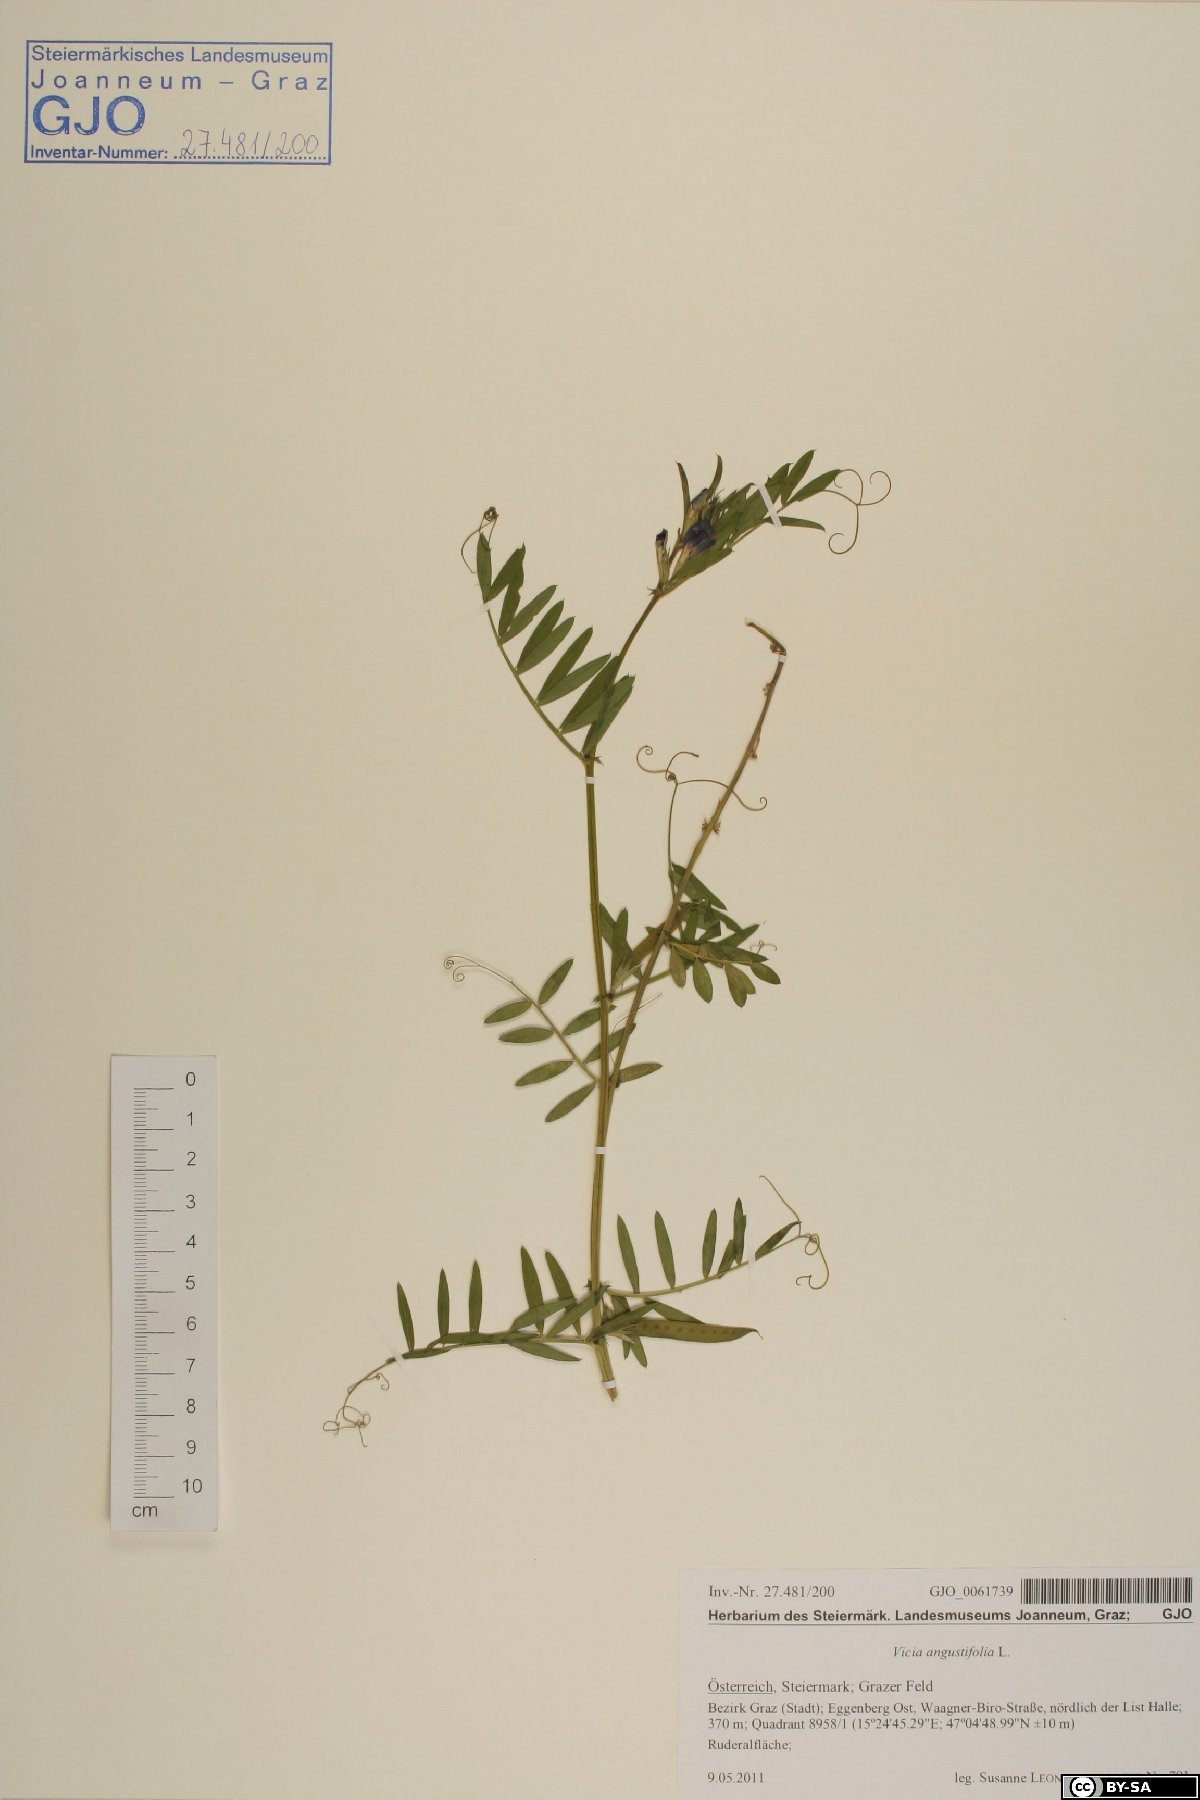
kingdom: Plantae
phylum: Tracheophyta
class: Magnoliopsida
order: Fabales
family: Fabaceae
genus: Vicia
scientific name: Vicia sativa
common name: Garden vetch
